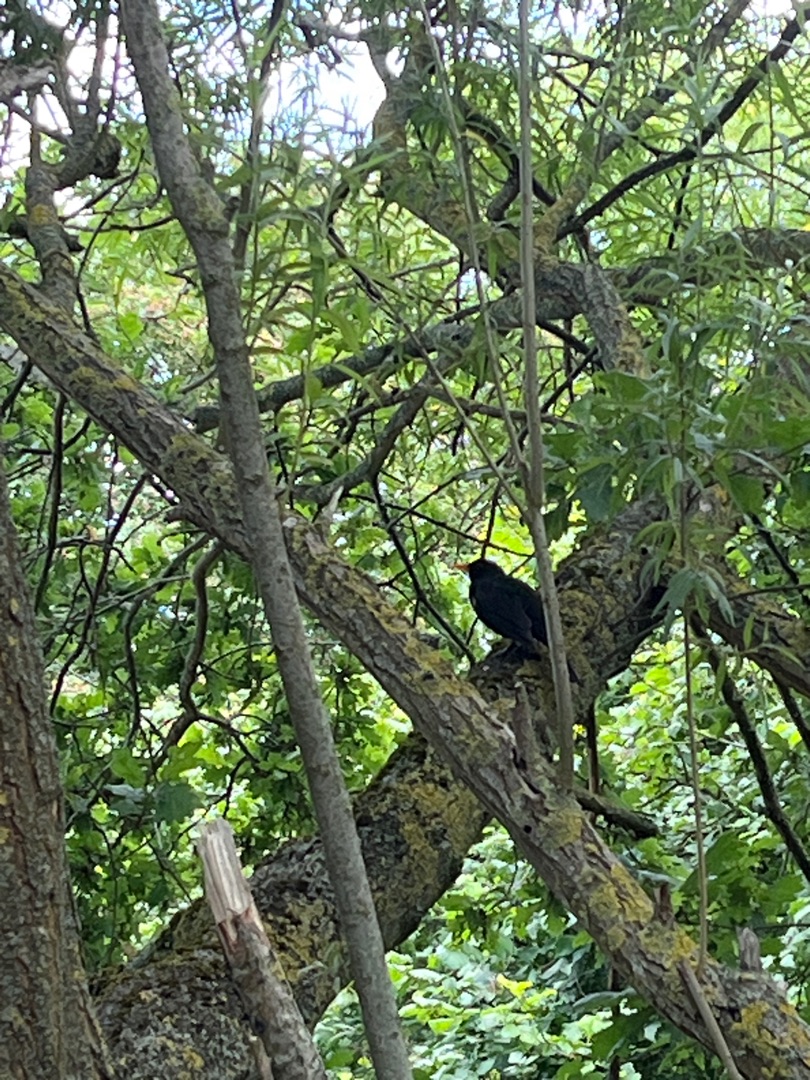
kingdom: Animalia
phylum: Chordata
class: Aves
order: Passeriformes
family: Turdidae
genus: Turdus
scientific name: Turdus merula
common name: Solsort
